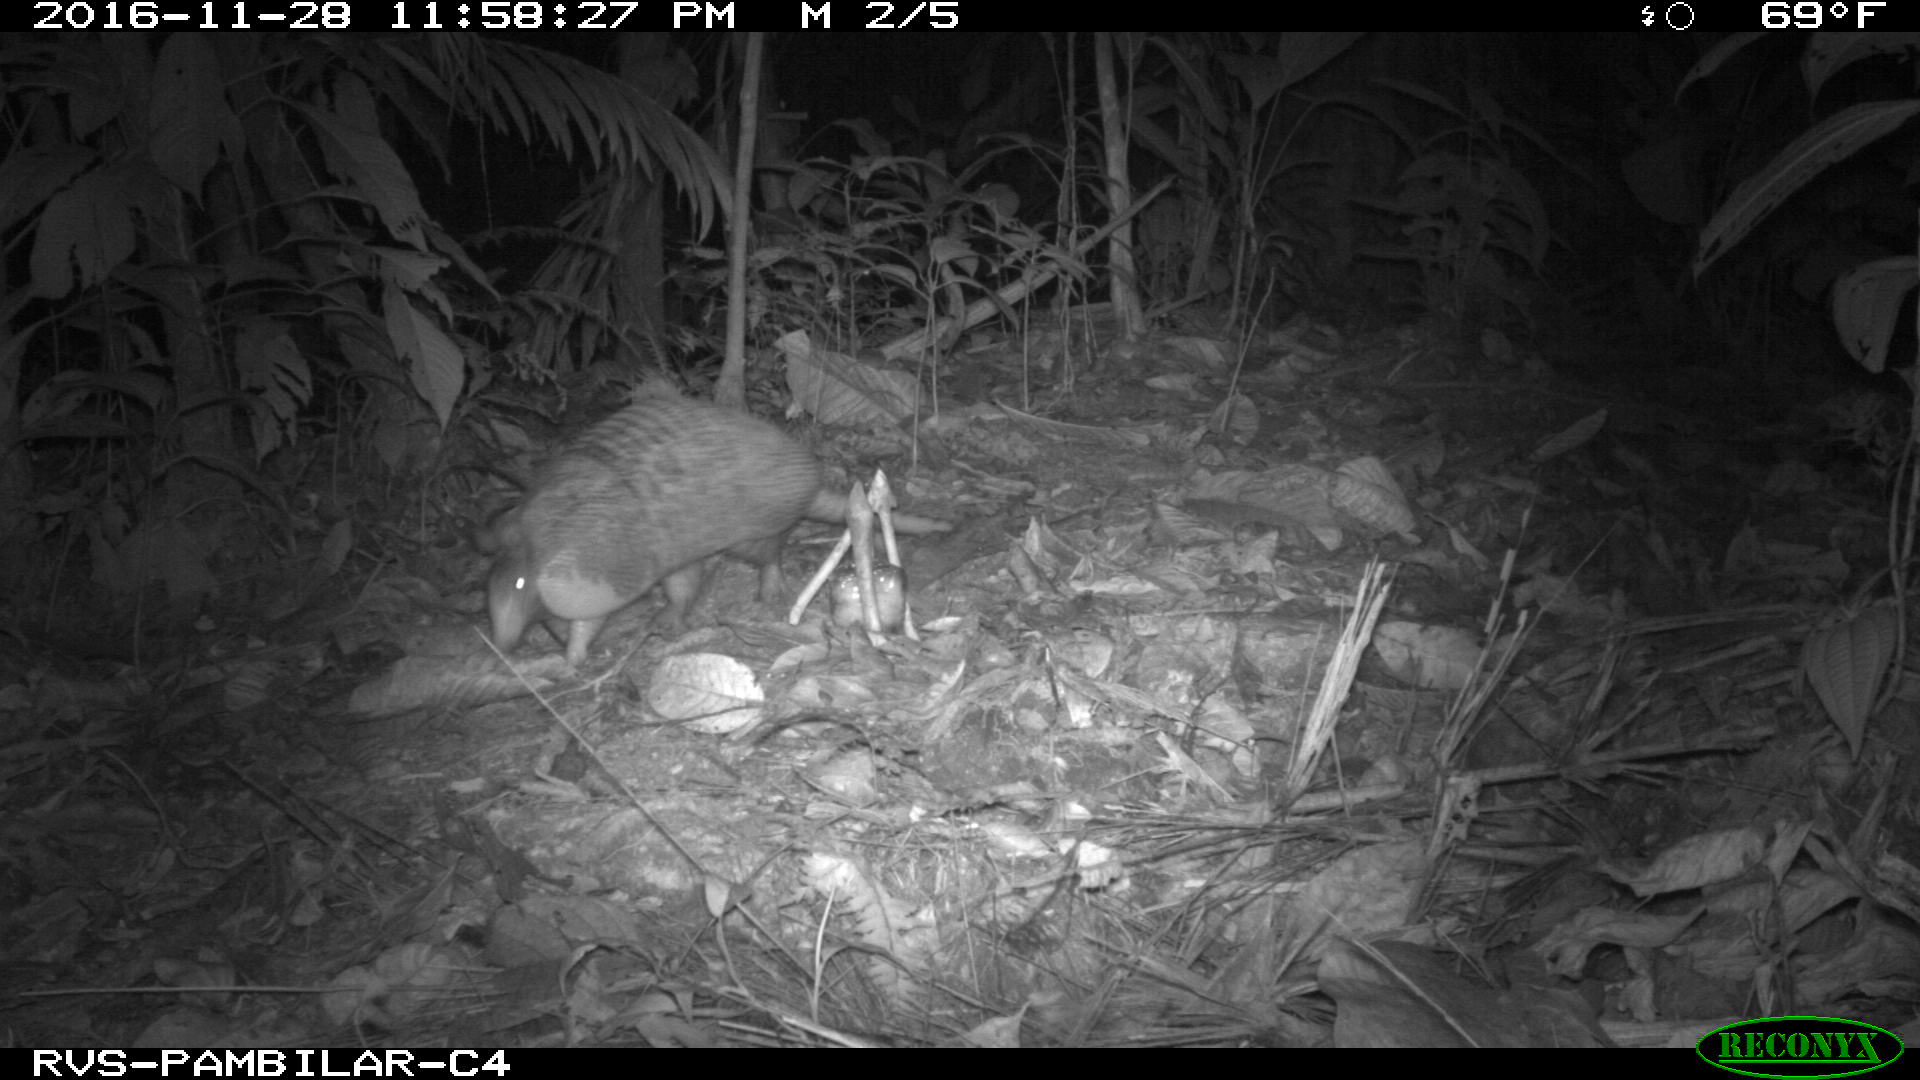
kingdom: Animalia
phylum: Chordata
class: Mammalia
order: Cingulata
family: Dasypodidae
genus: Dasypus
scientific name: Dasypus novemcinctus
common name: Nine-banded armadillo
